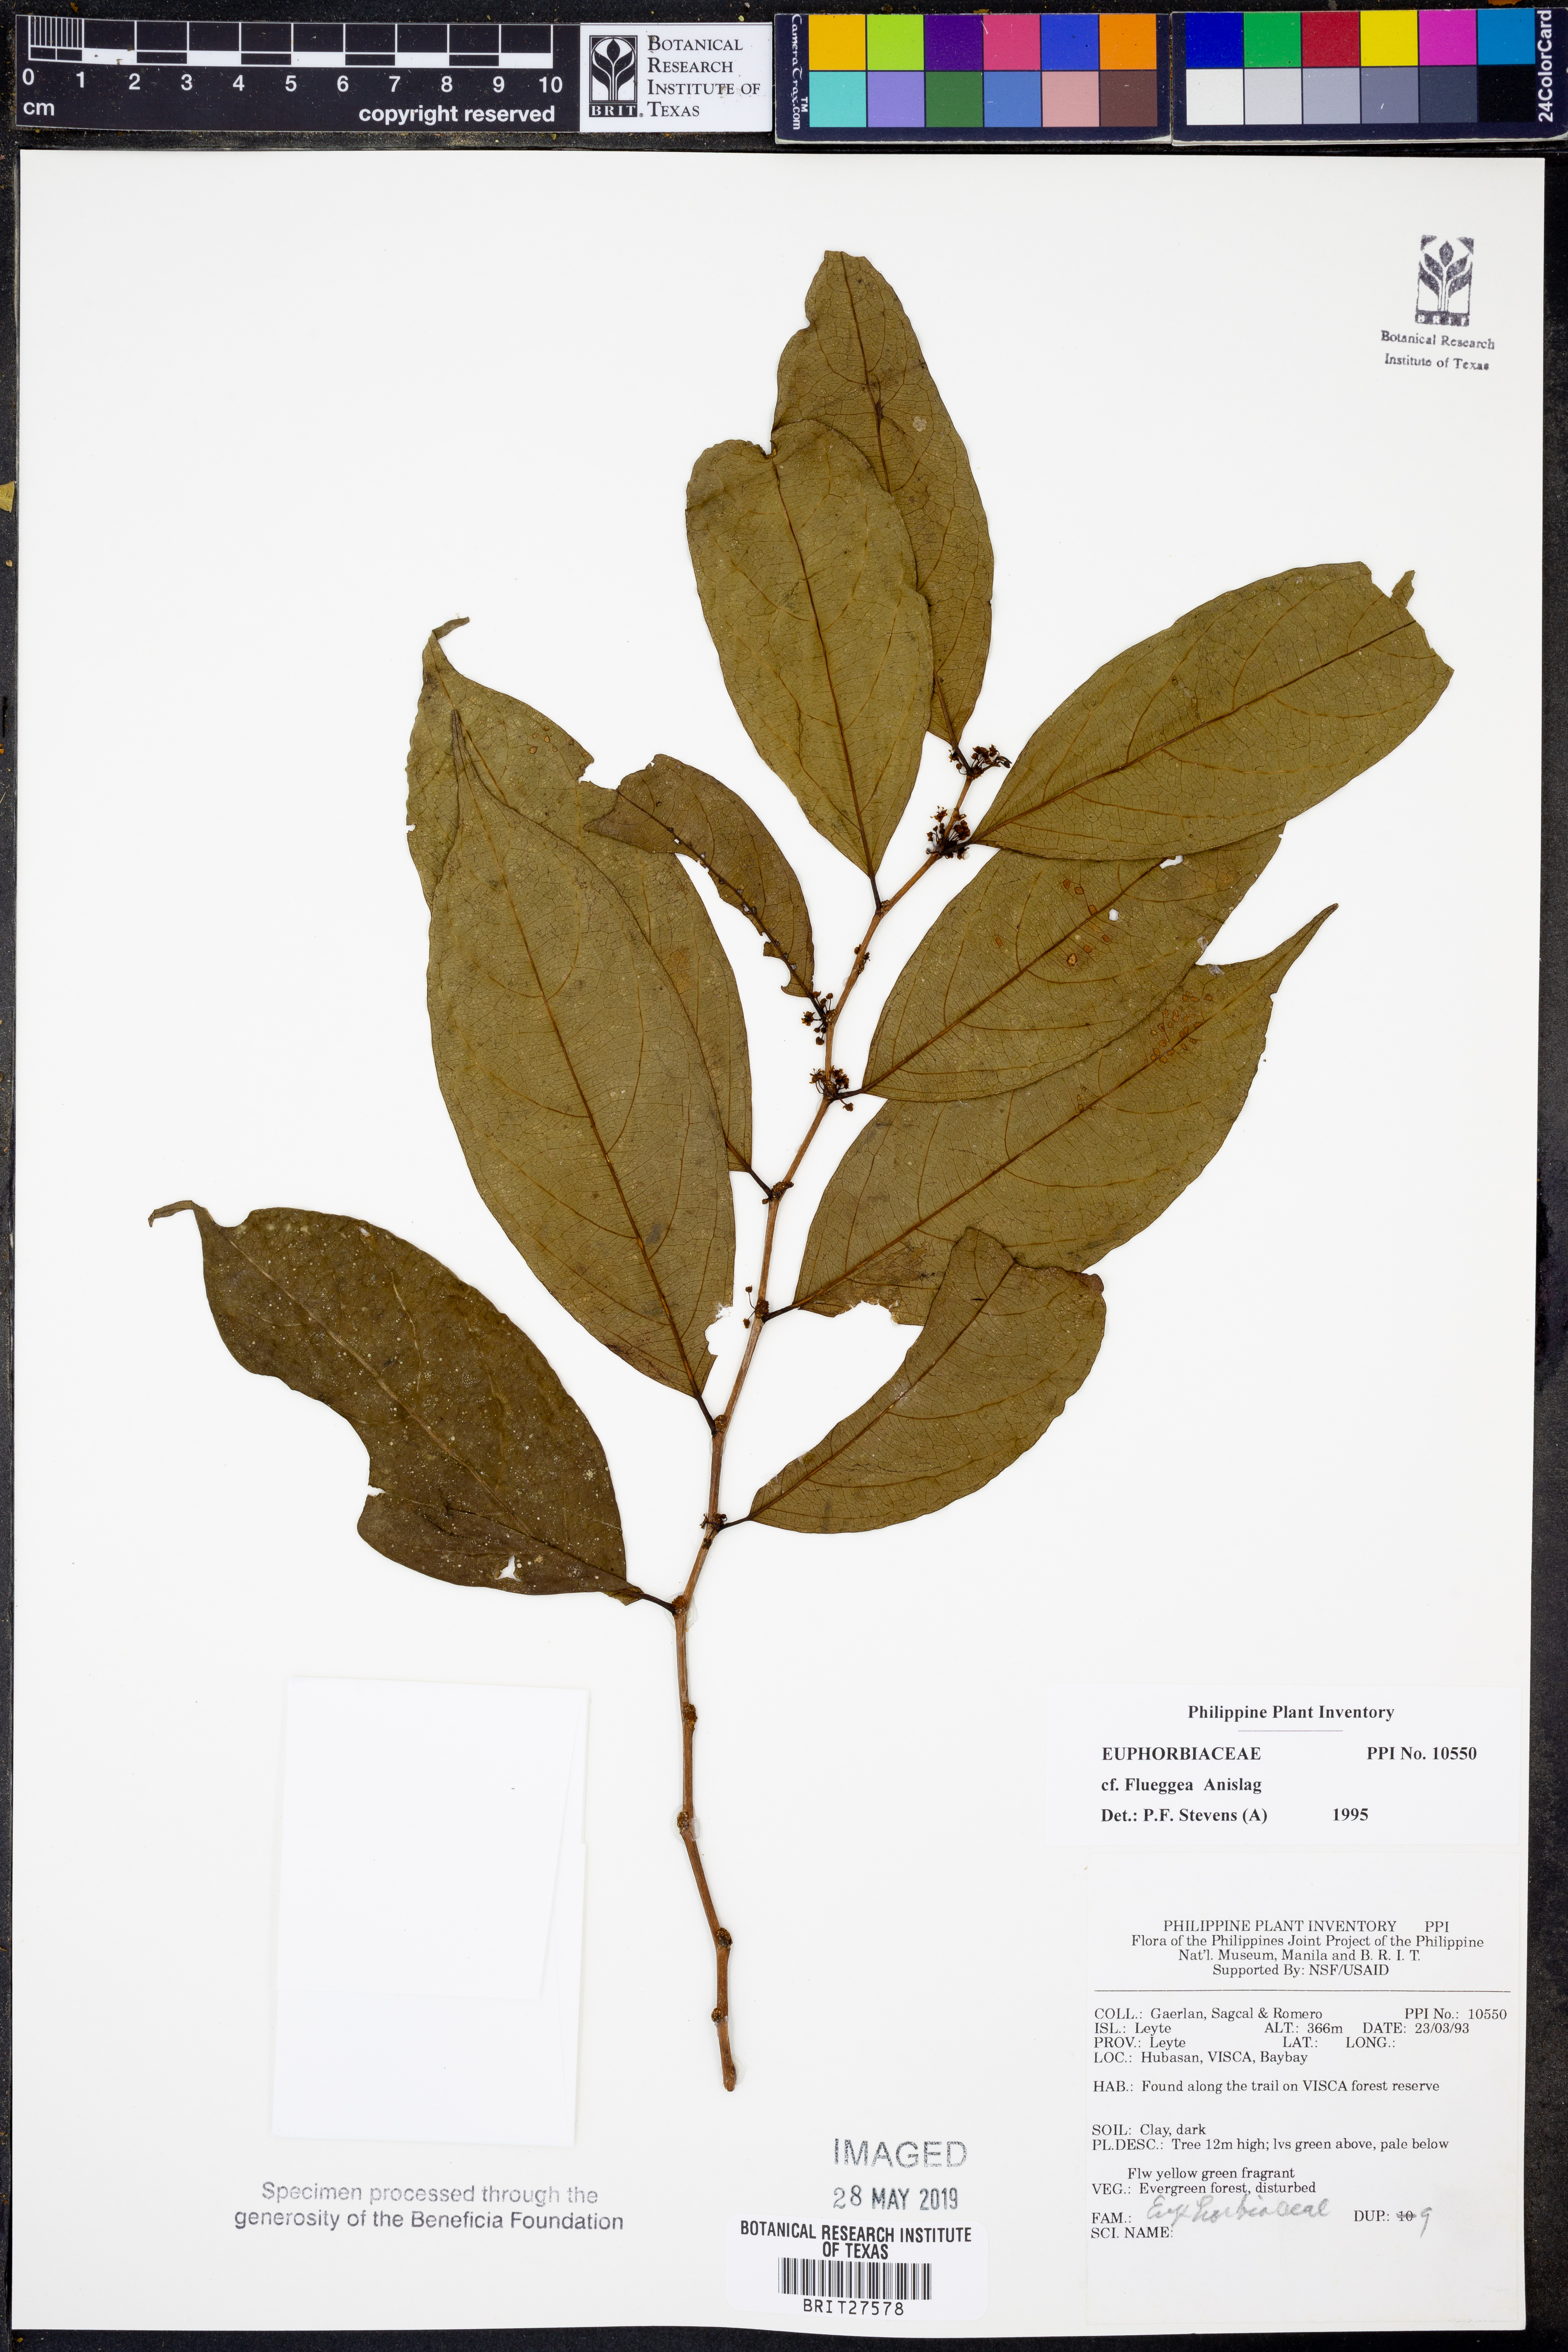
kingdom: Plantae
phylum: Tracheophyta
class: Magnoliopsida
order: Malpighiales
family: Phyllanthaceae
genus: Flueggea
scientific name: Flueggea
